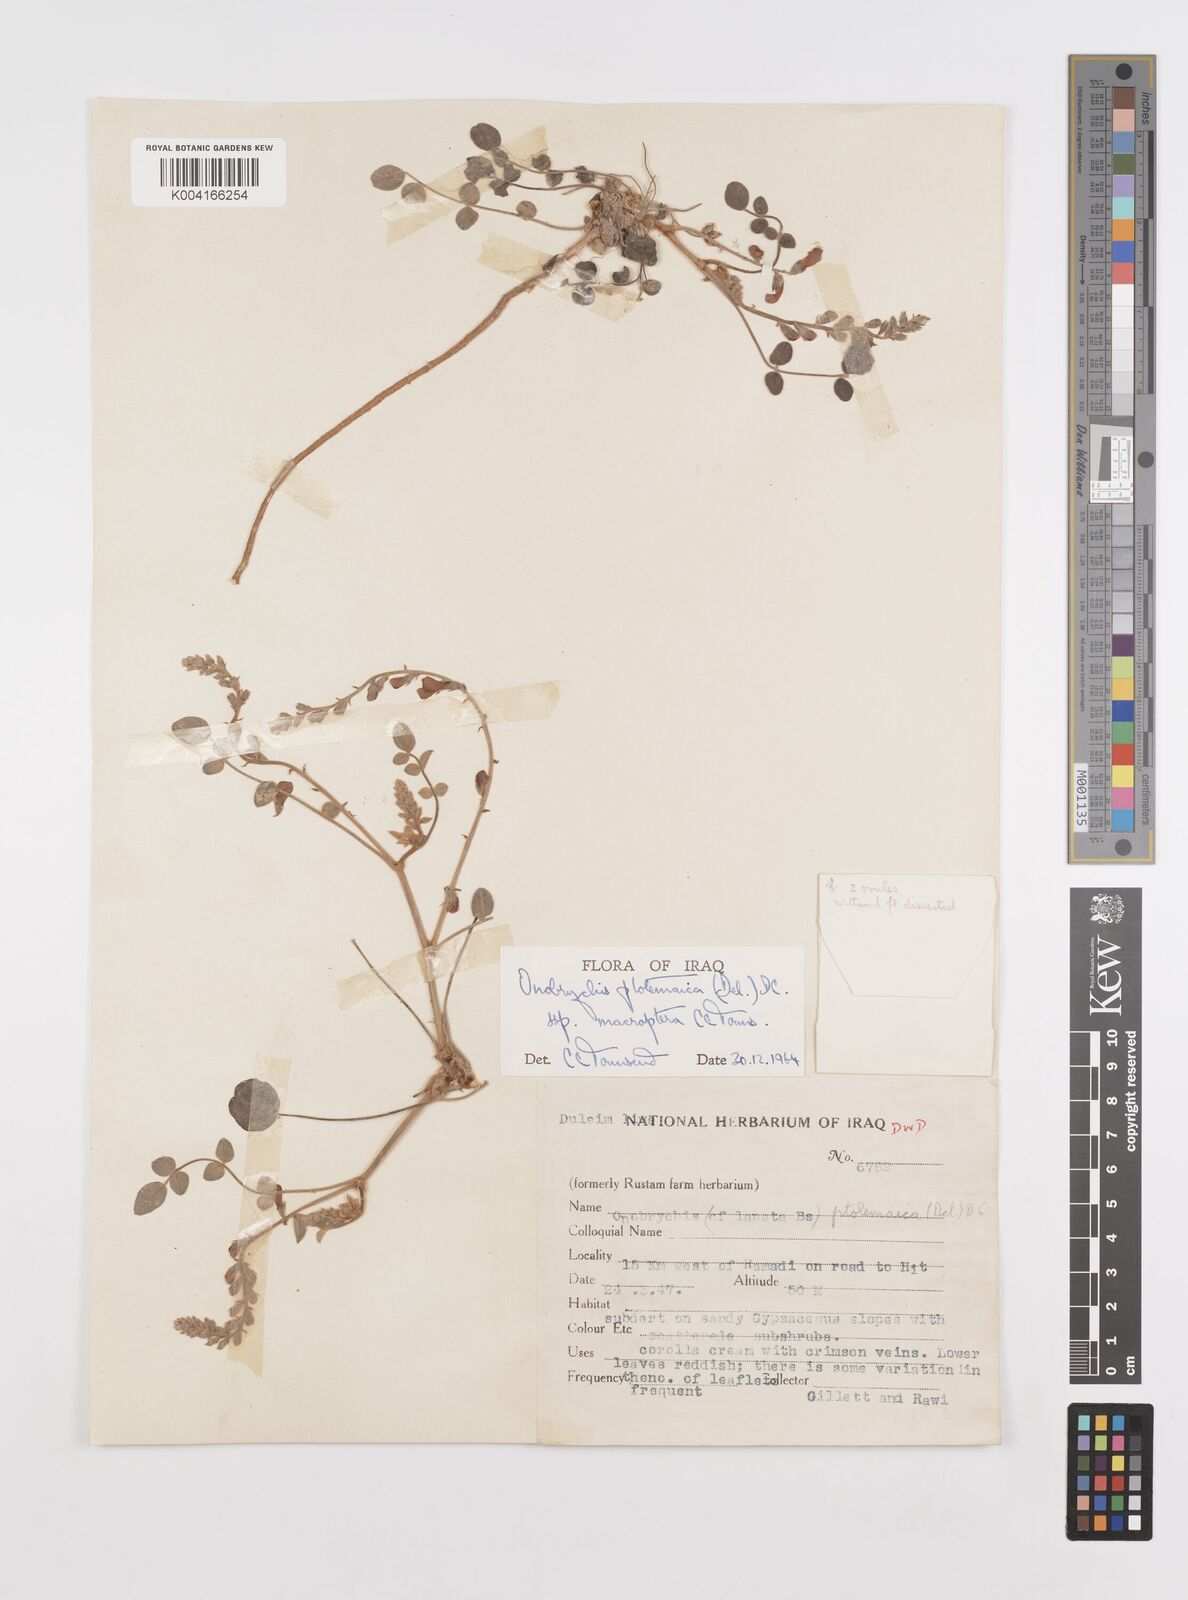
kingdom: Plantae
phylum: Tracheophyta
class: Magnoliopsida
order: Fabales
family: Fabaceae
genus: Onobrychis
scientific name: Onobrychis ptolemaica
